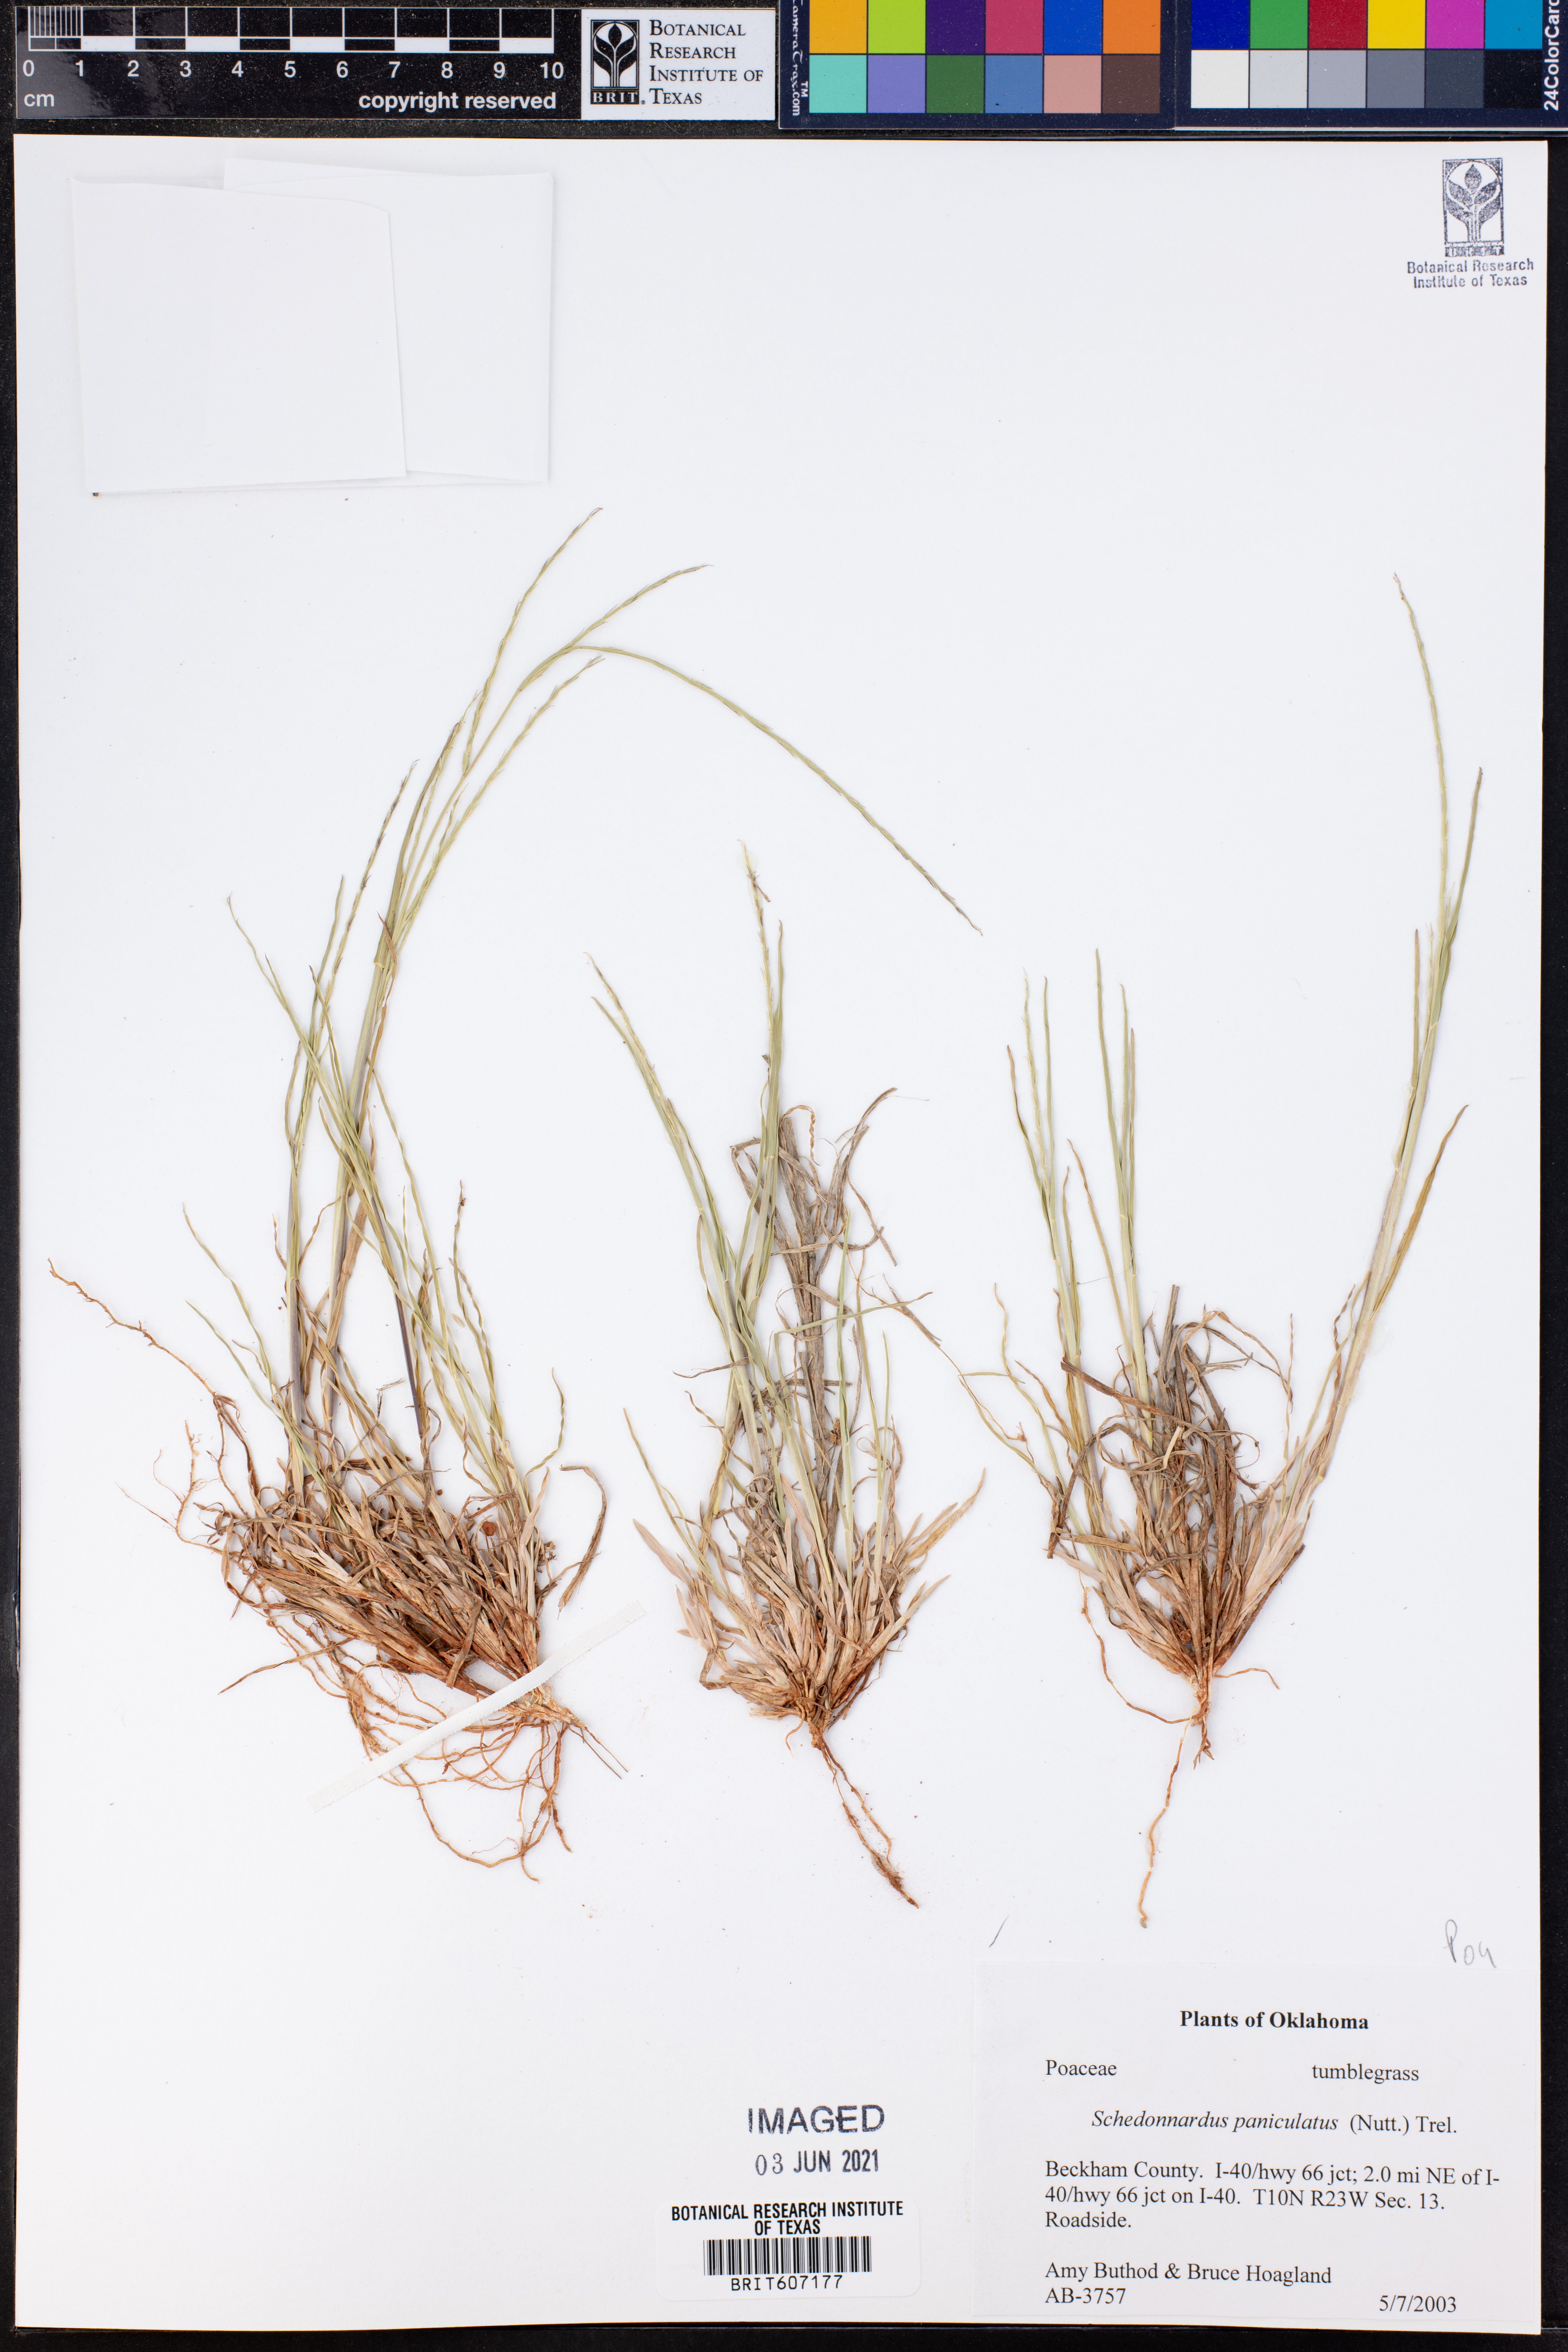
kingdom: Plantae
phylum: Tracheophyta
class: Liliopsida
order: Poales
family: Poaceae
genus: Muhlenbergia
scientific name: Muhlenbergia paniculata
